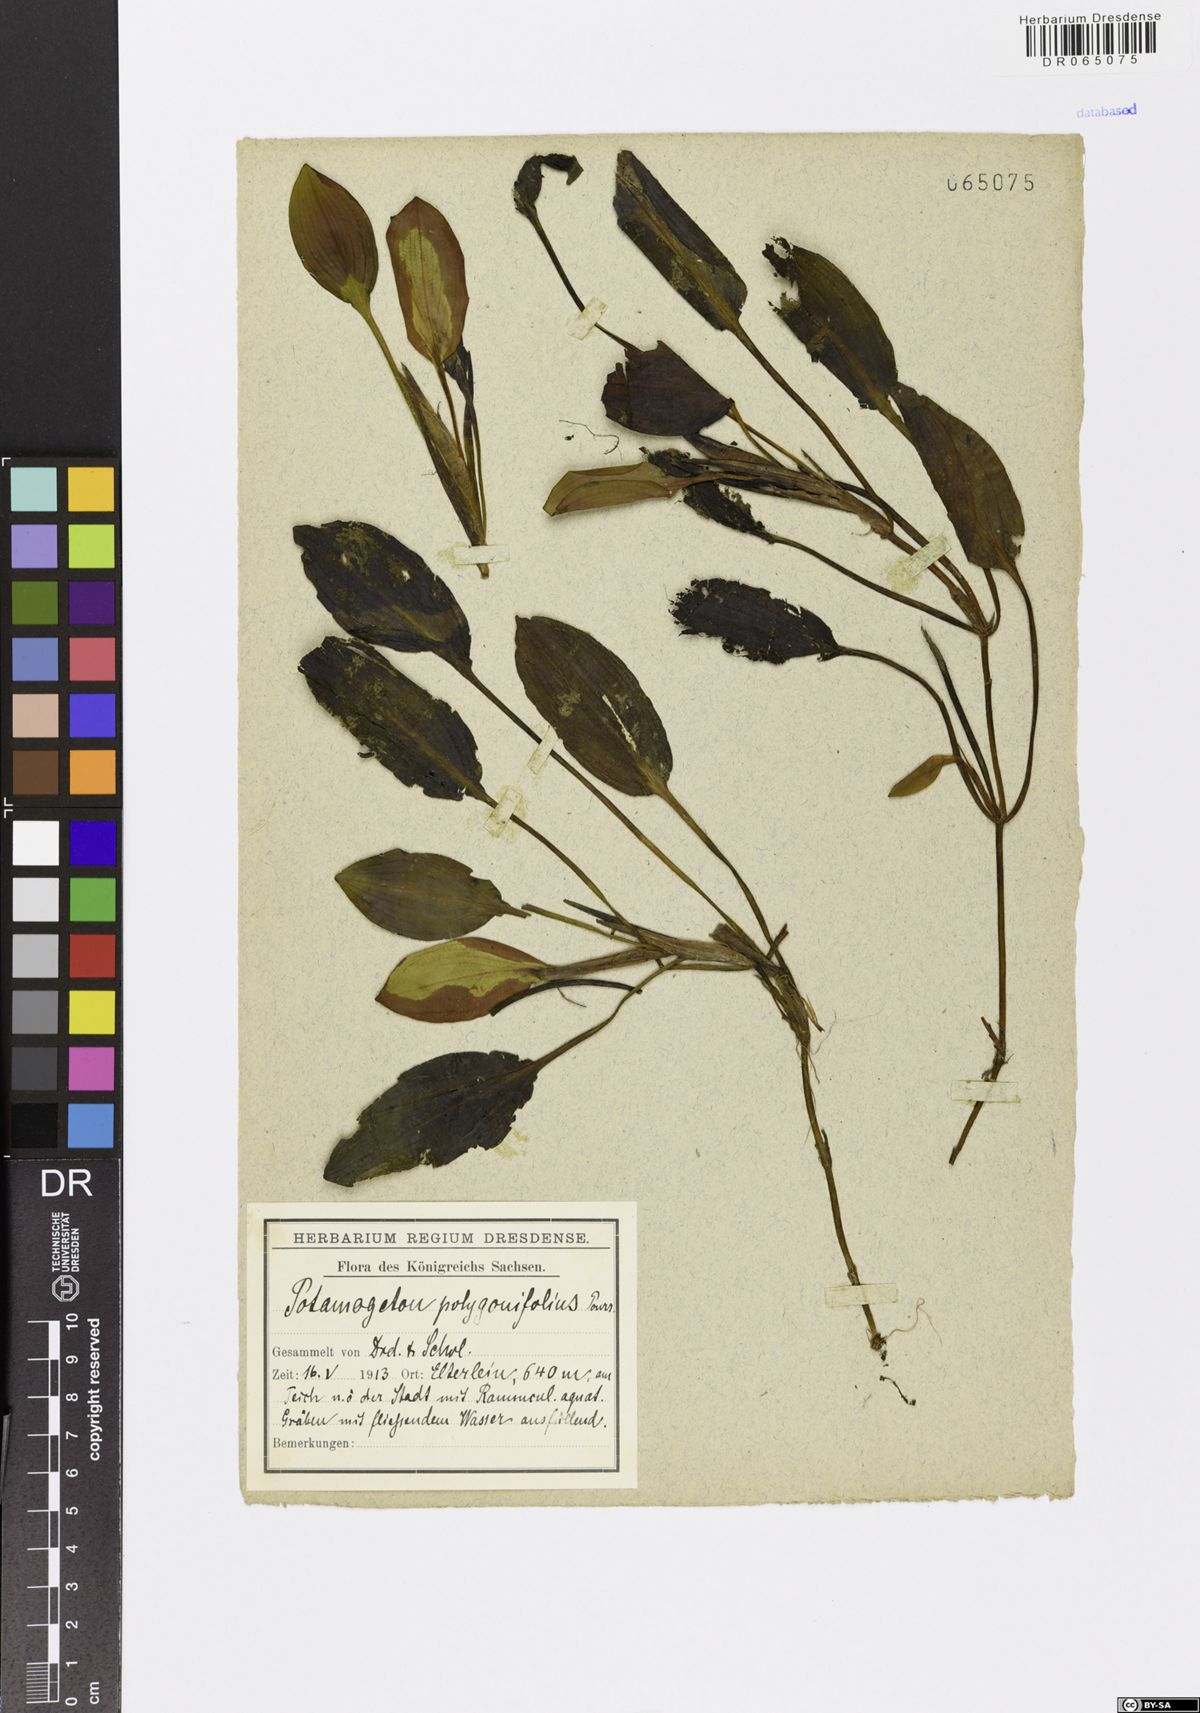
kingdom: Plantae
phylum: Tracheophyta
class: Liliopsida
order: Alismatales
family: Potamogetonaceae
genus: Potamogeton
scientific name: Potamogeton polygonifolius
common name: Bog pondweed
